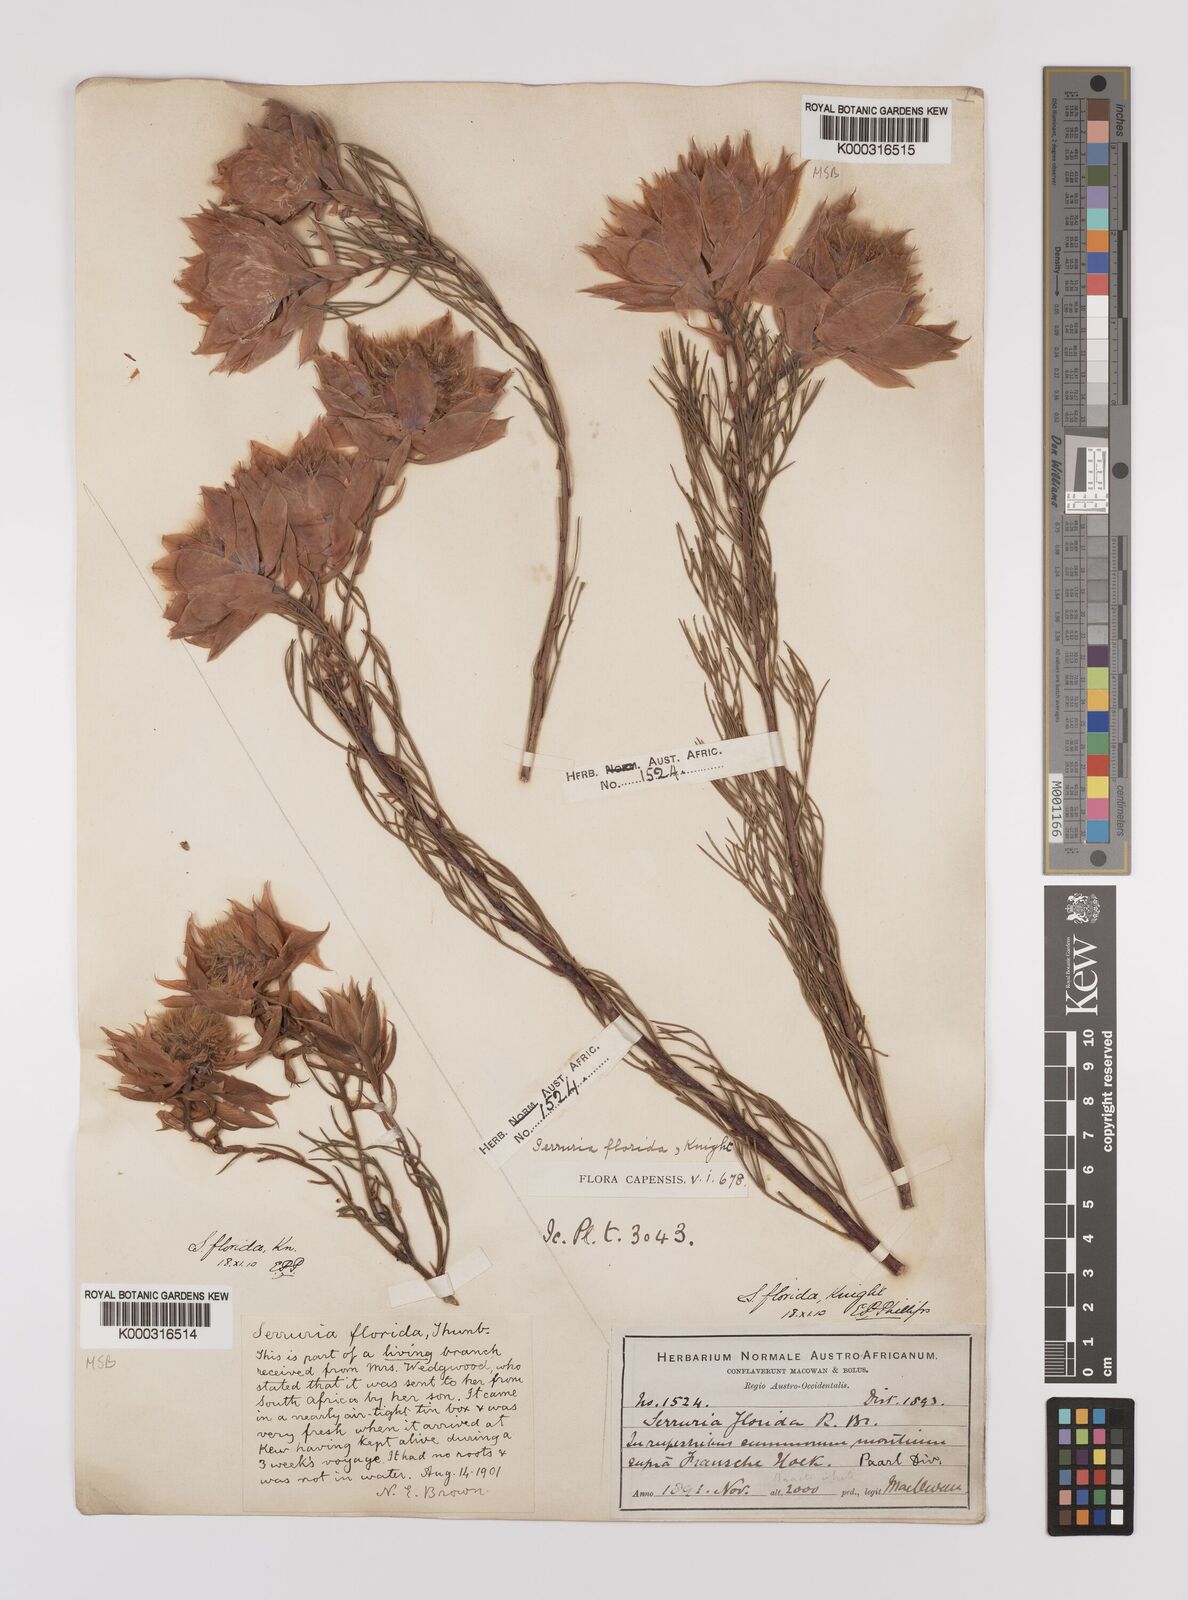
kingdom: Plantae
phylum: Tracheophyta
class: Magnoliopsida
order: Proteales
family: Proteaceae
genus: Serruria
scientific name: Serruria florida
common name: Blushing bride
